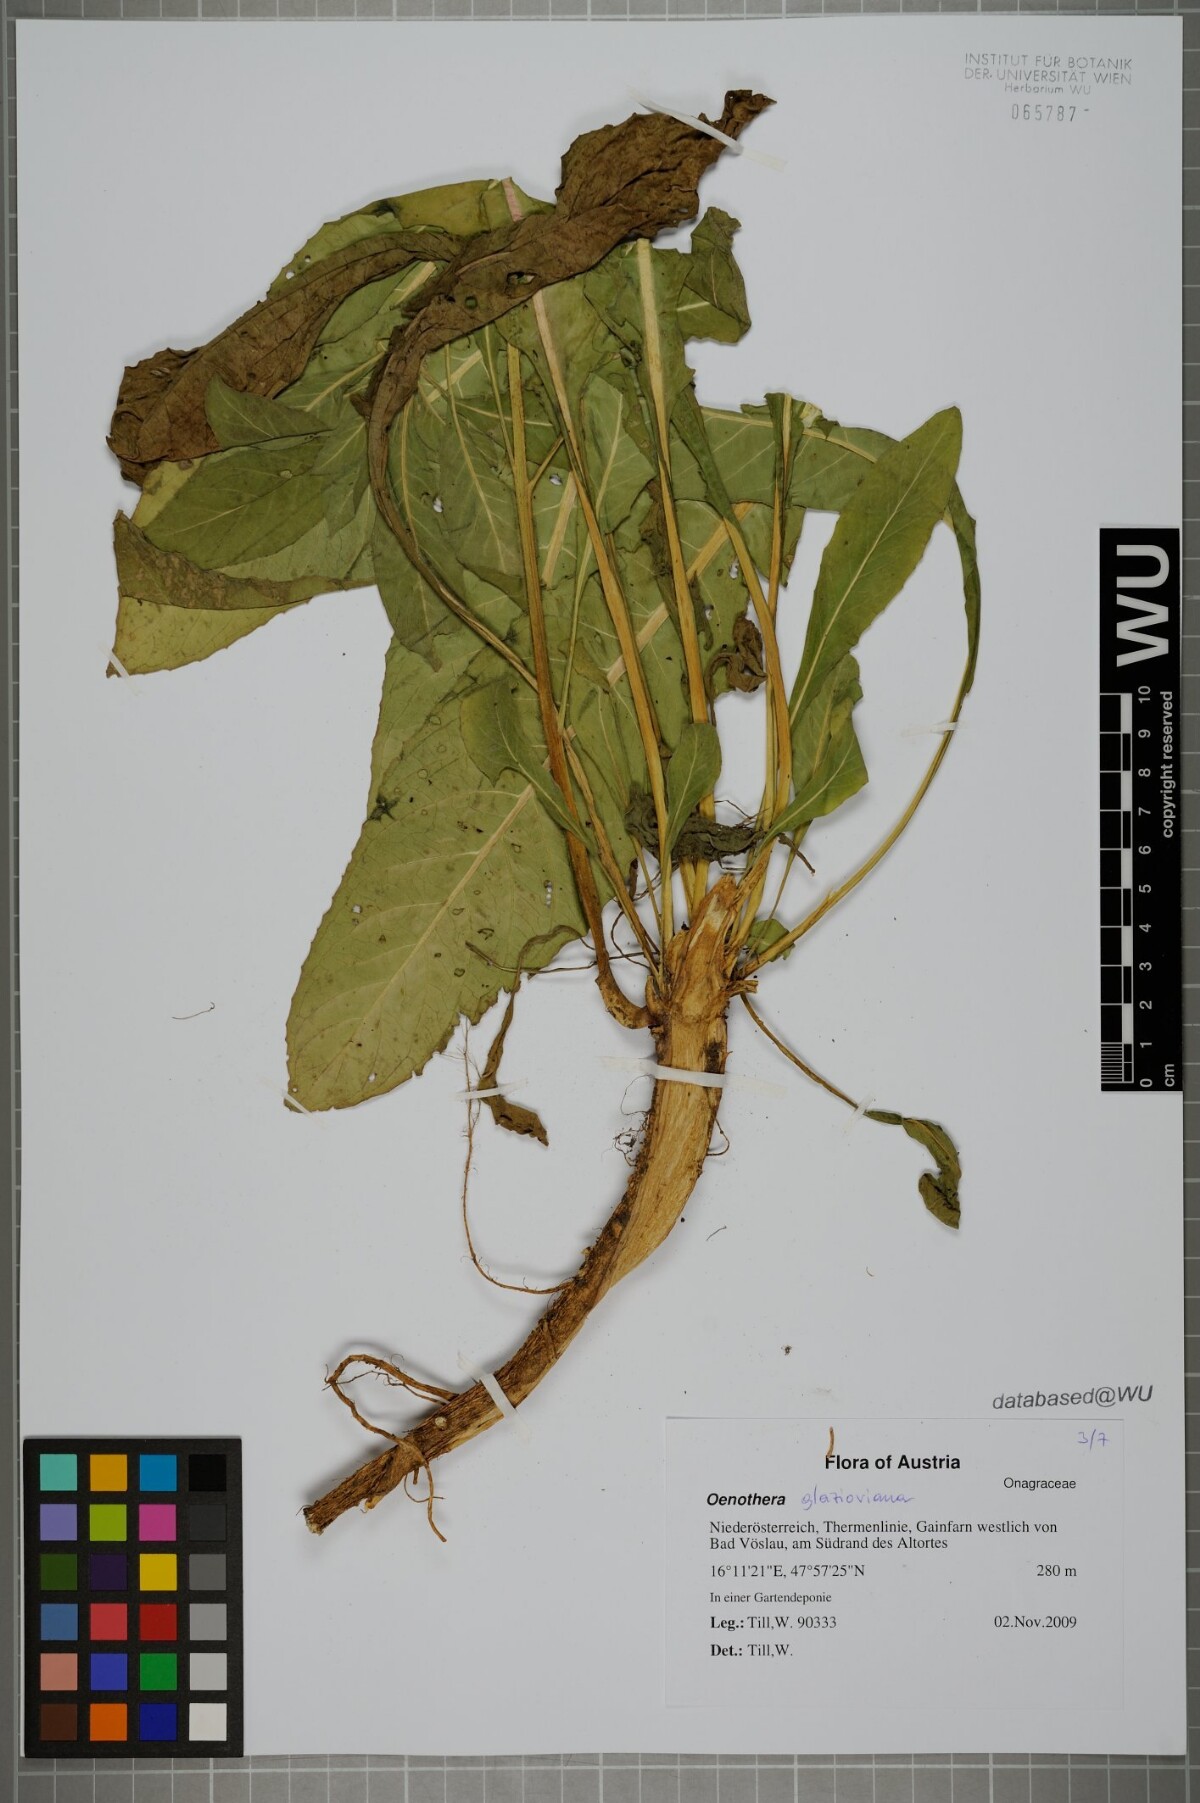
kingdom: Plantae
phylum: Tracheophyta
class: Magnoliopsida
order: Myrtales
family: Onagraceae
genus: Oenothera
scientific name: Oenothera glazioviana
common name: Large-flowered evening-primrose
